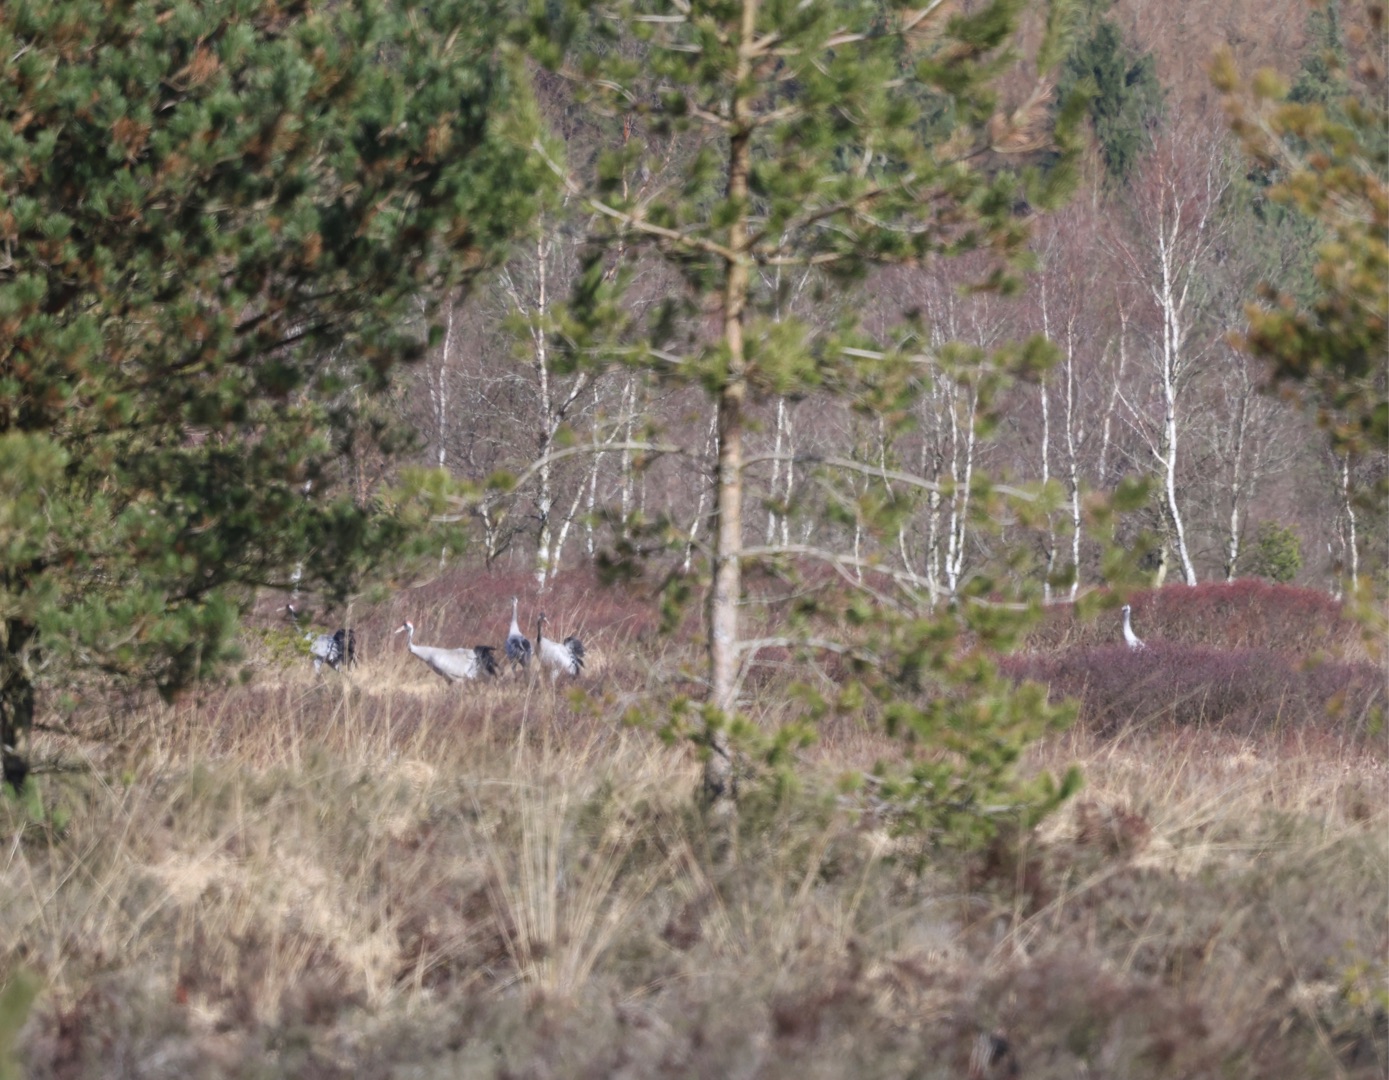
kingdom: Animalia
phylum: Chordata
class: Aves
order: Gruiformes
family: Gruidae
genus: Grus
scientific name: Grus grus
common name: Trane
